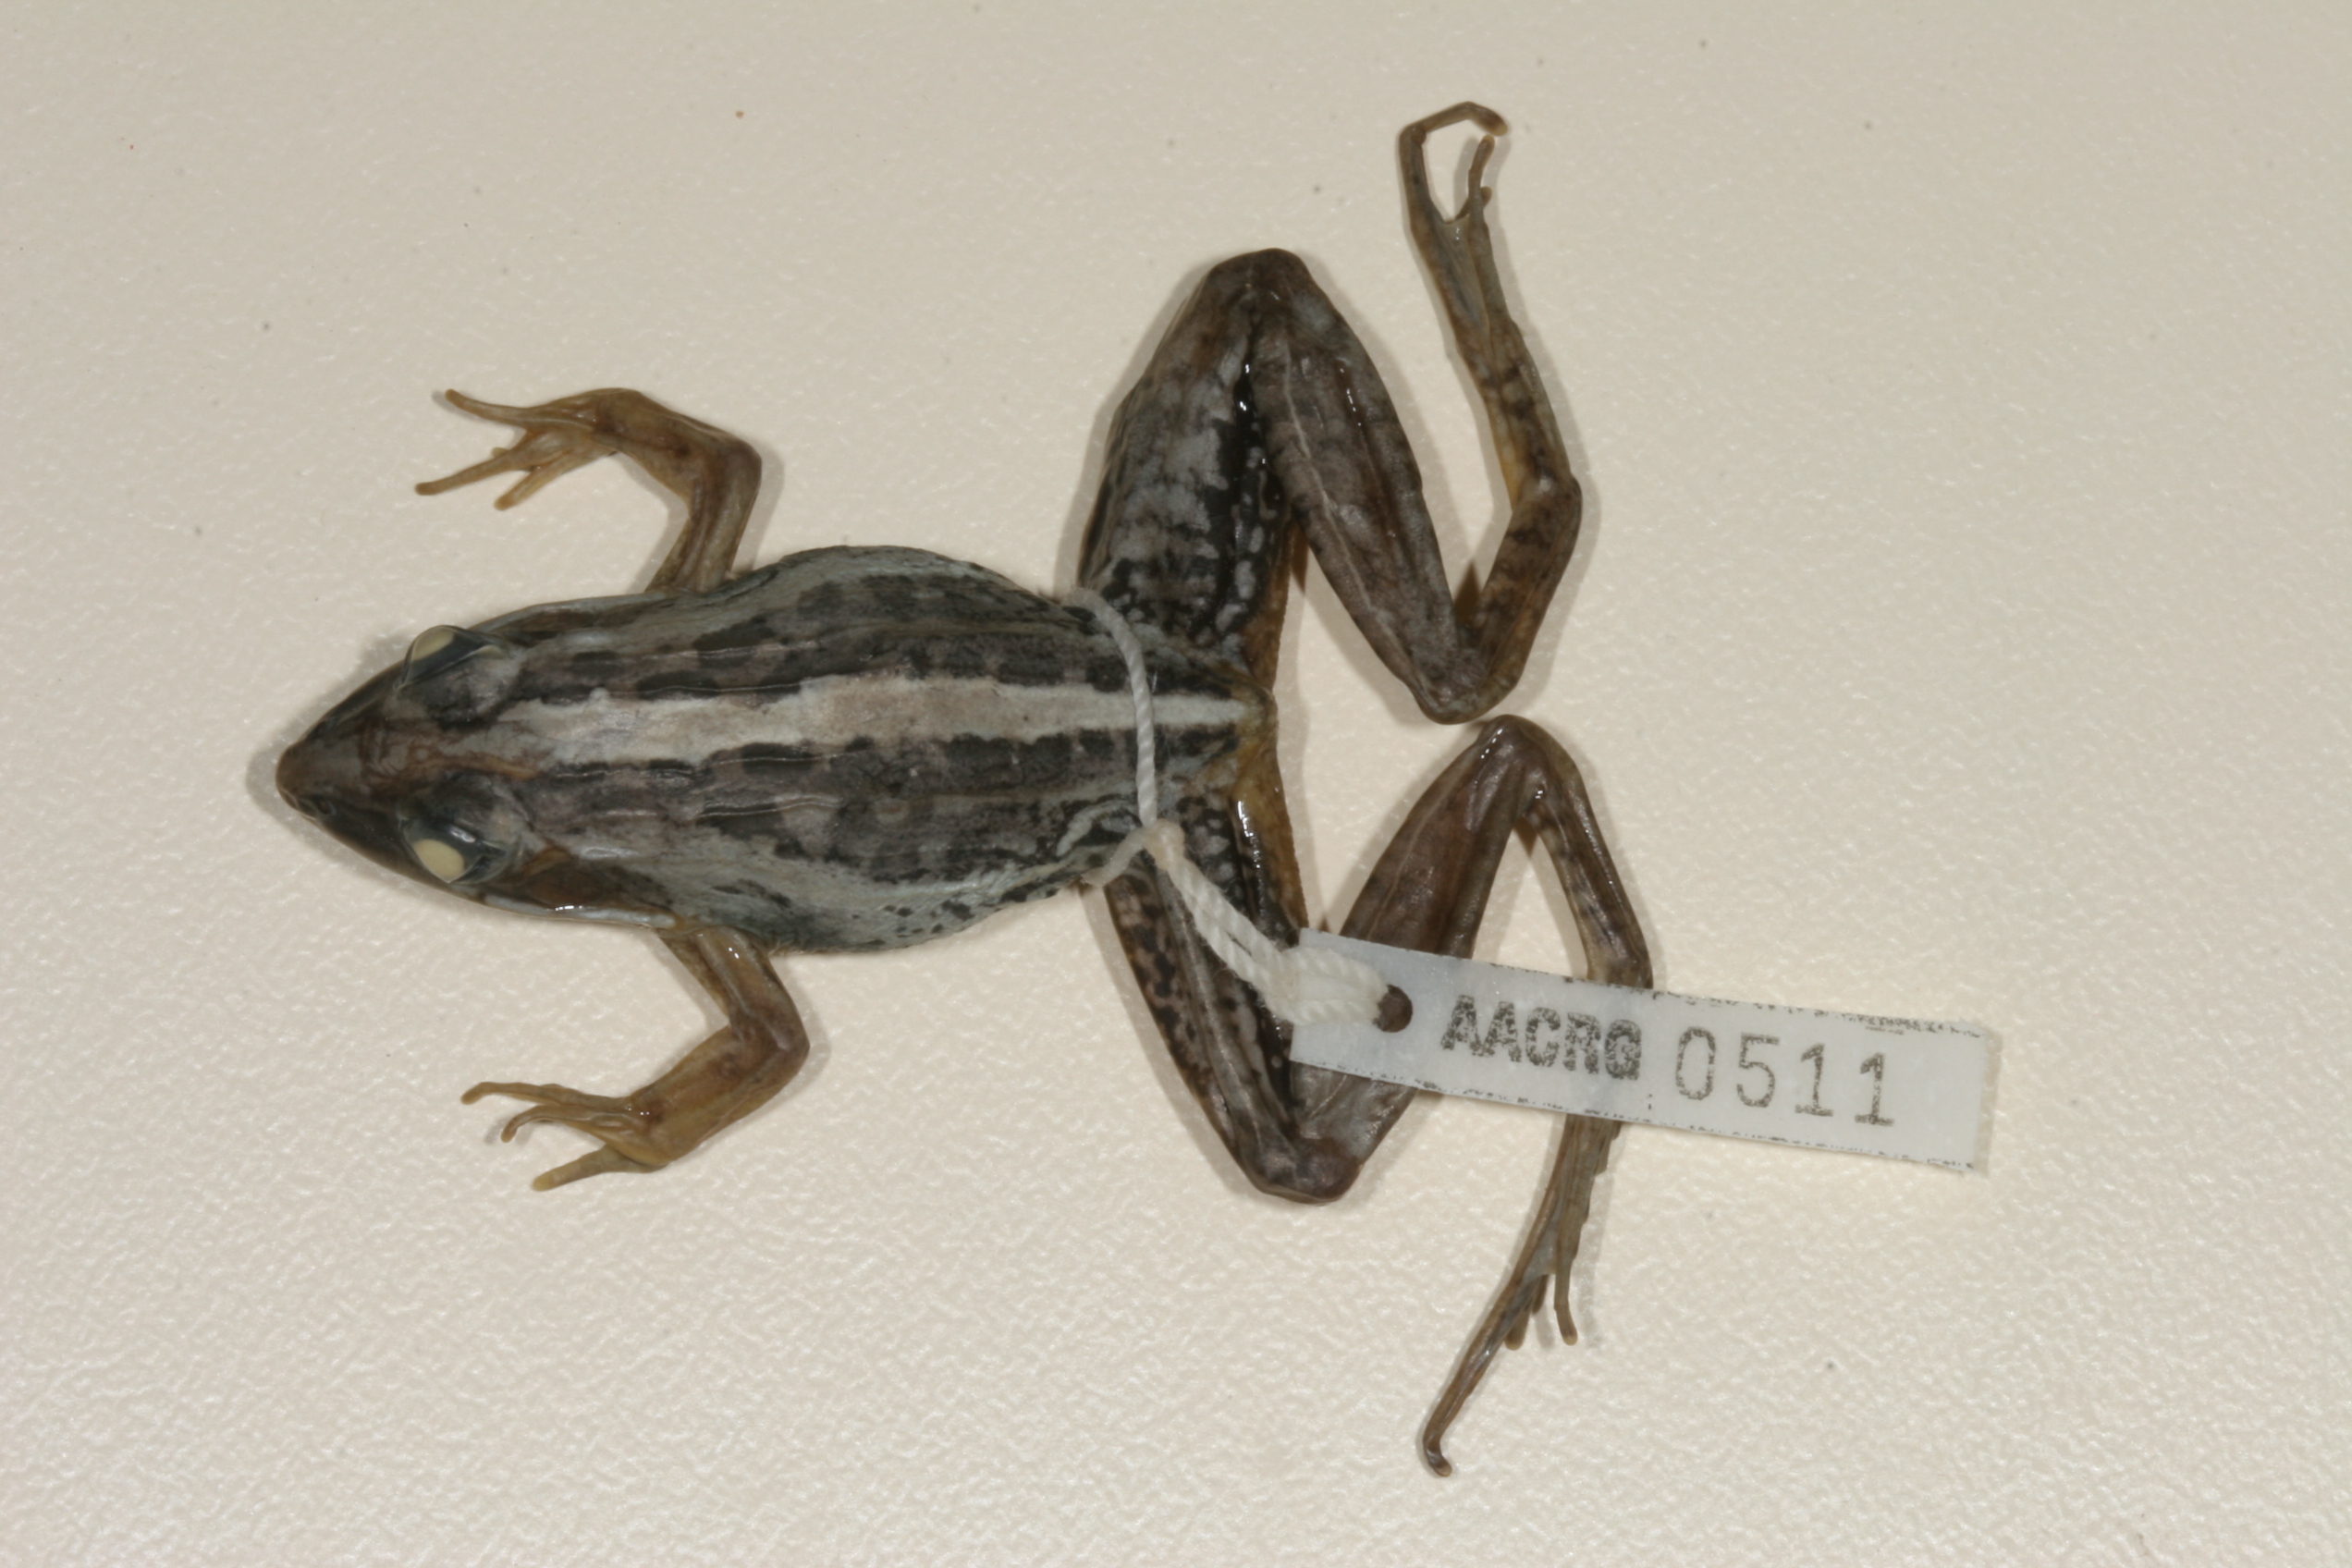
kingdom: Animalia
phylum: Chordata
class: Amphibia
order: Anura
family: Ptychadenidae
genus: Ptychadena
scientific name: Ptychadena mascareniensis
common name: Mascarene grass frog
